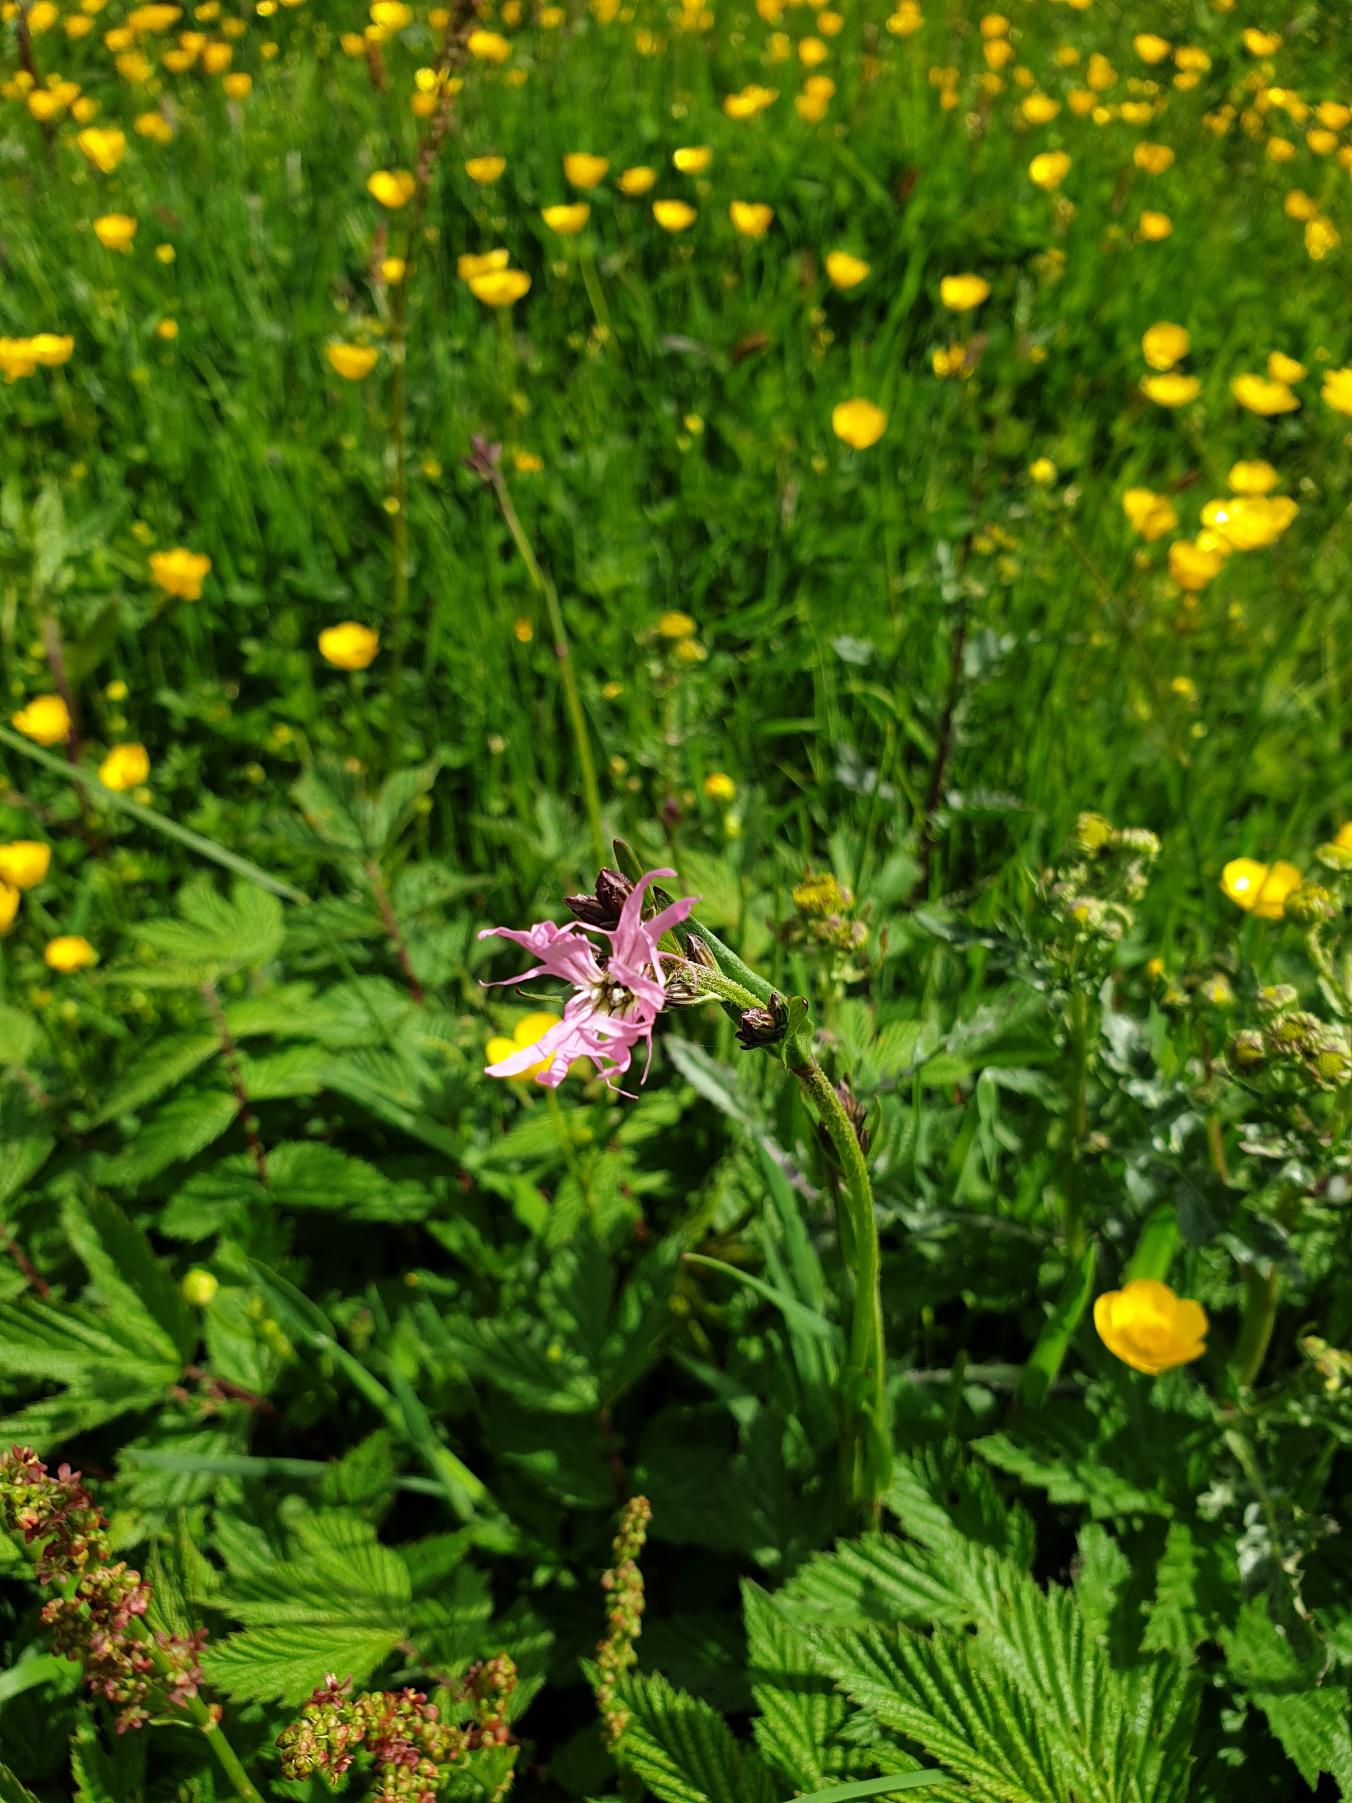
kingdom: Plantae
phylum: Tracheophyta
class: Magnoliopsida
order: Caryophyllales
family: Caryophyllaceae
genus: Silene
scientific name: Silene flos-cuculi
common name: Trævlekrone
